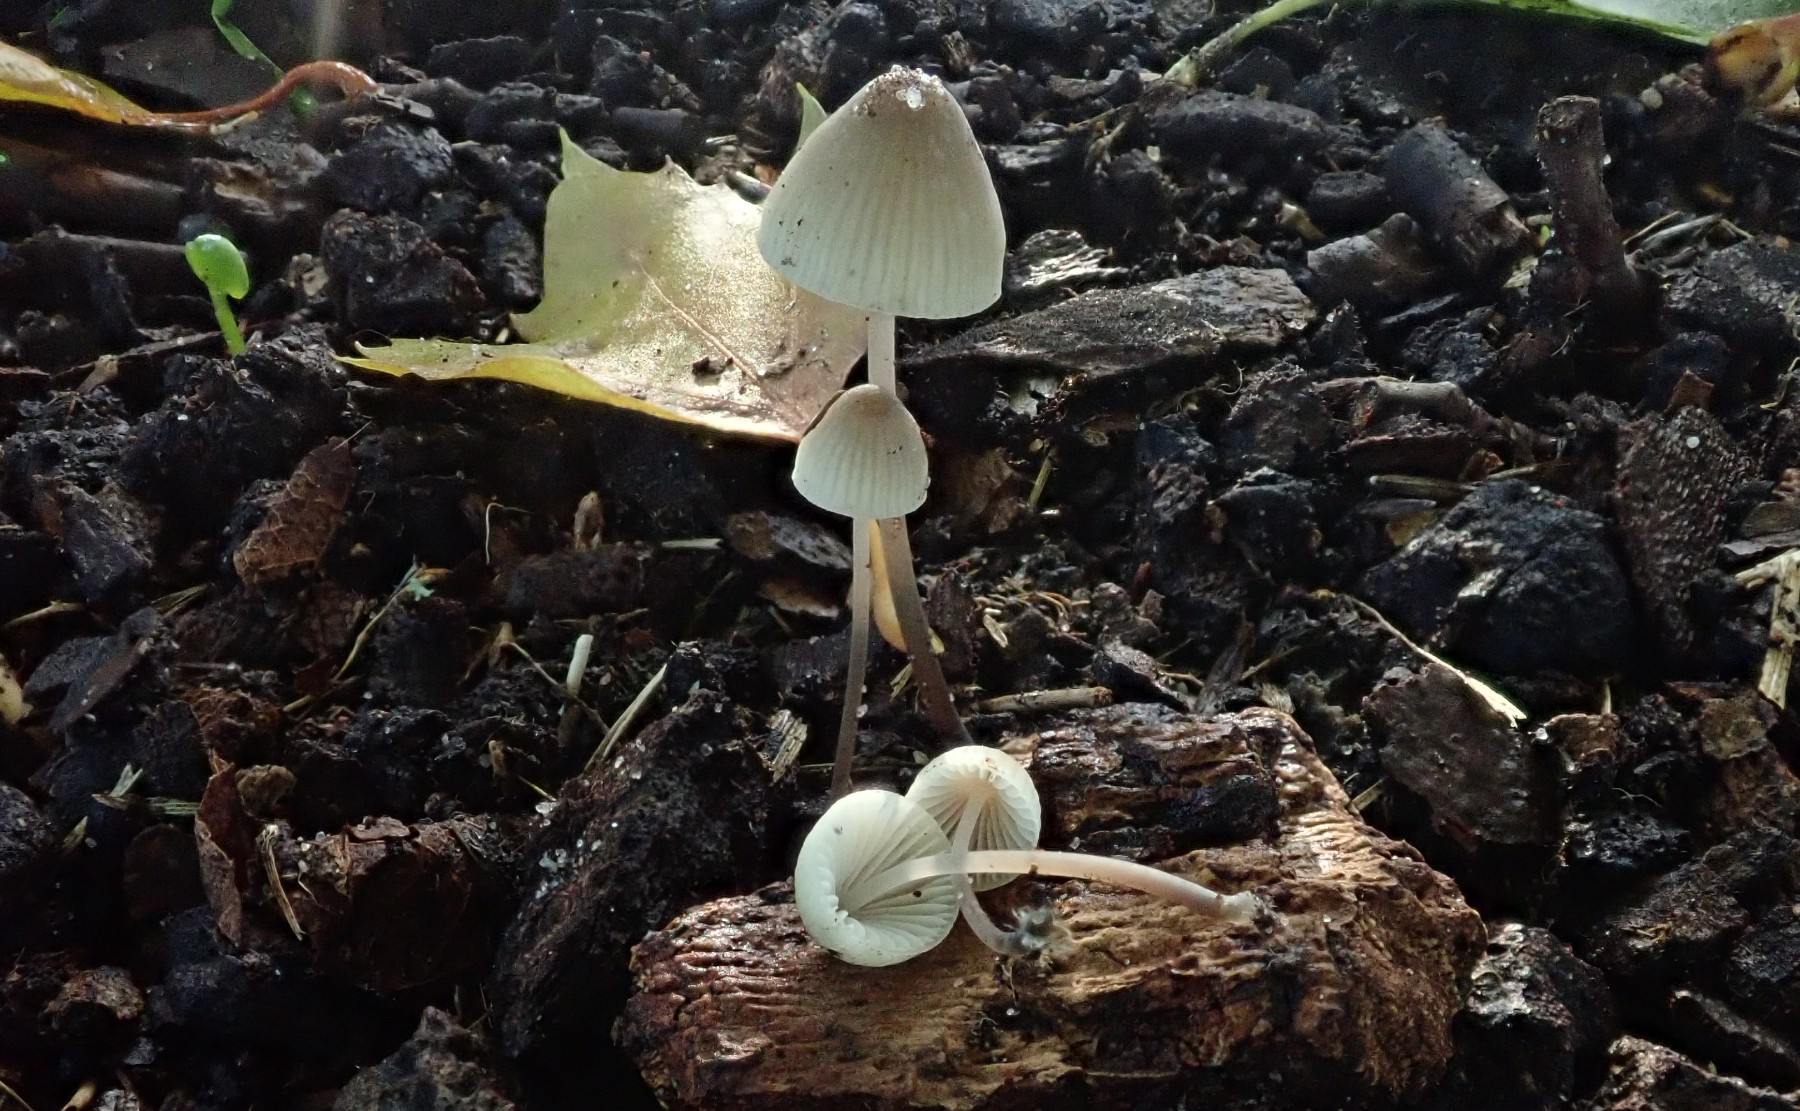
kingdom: Fungi
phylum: Basidiomycota
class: Agaricomycetes
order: Agaricales
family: Mycenaceae
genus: Mycena
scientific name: Mycena
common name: huesvamp
